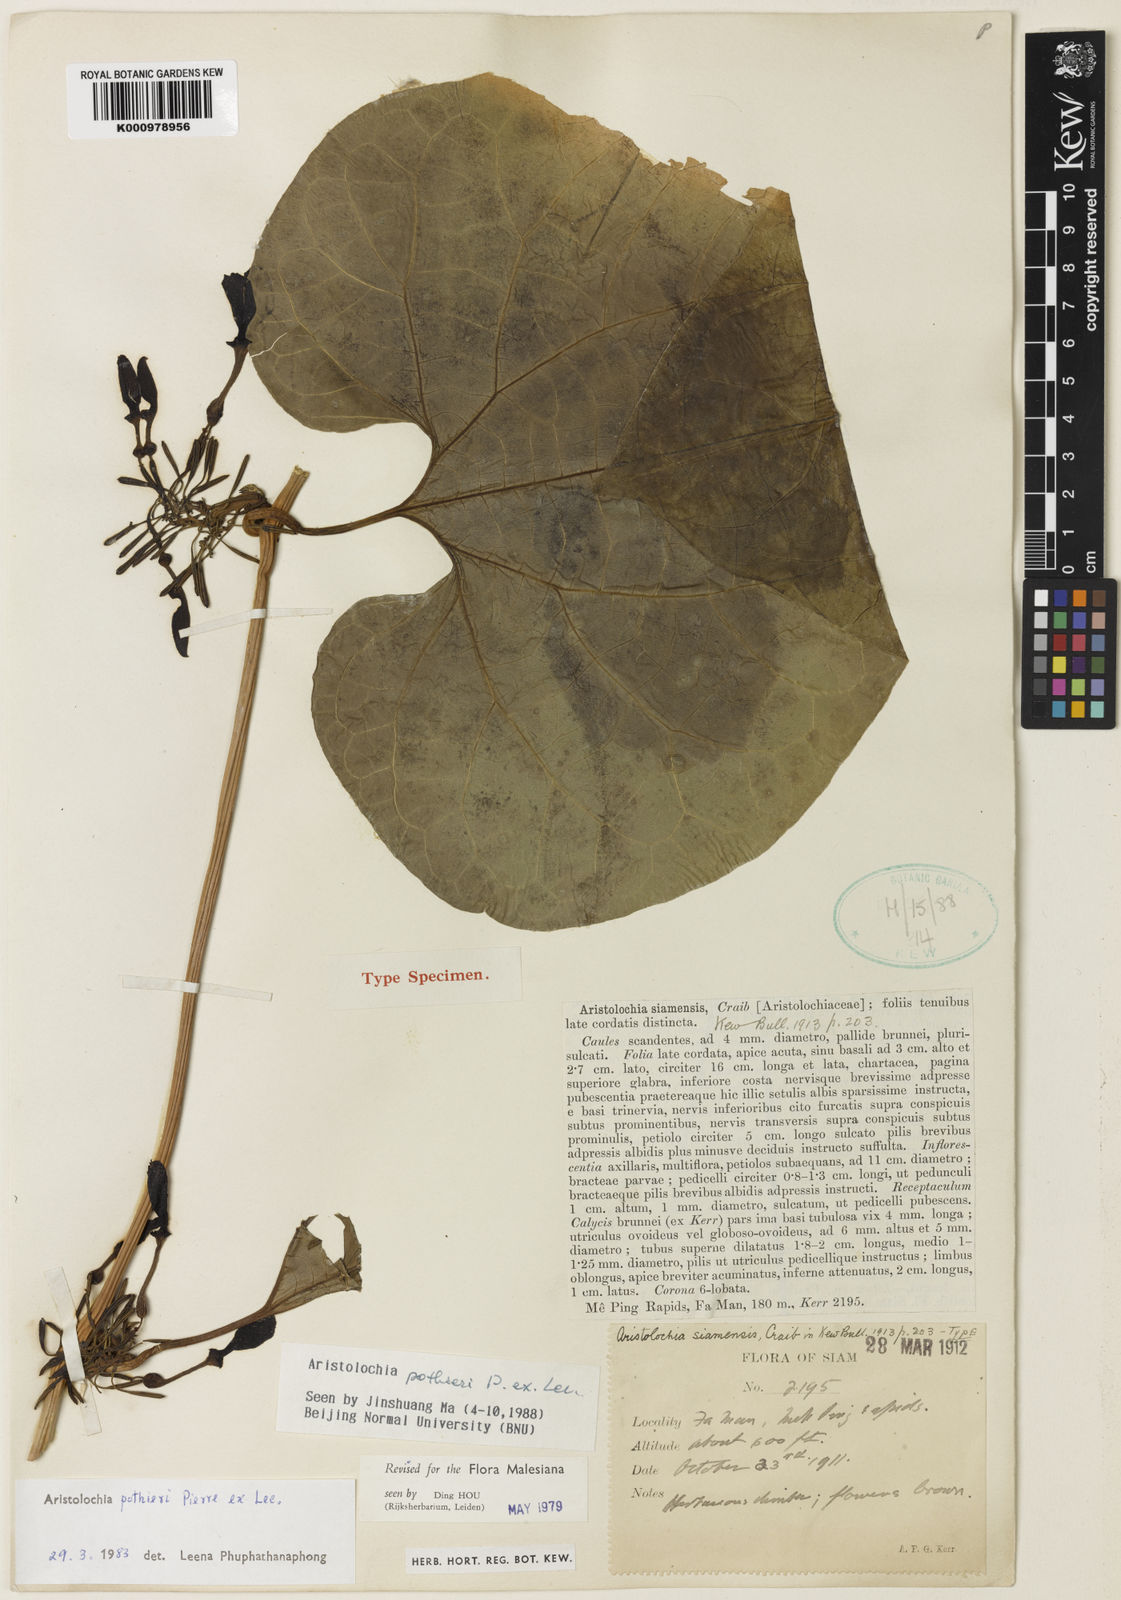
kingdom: Plantae
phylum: Tracheophyta
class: Magnoliopsida
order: Piperales
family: Aristolochiaceae
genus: Aristolochia
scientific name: Aristolochia pothieri
